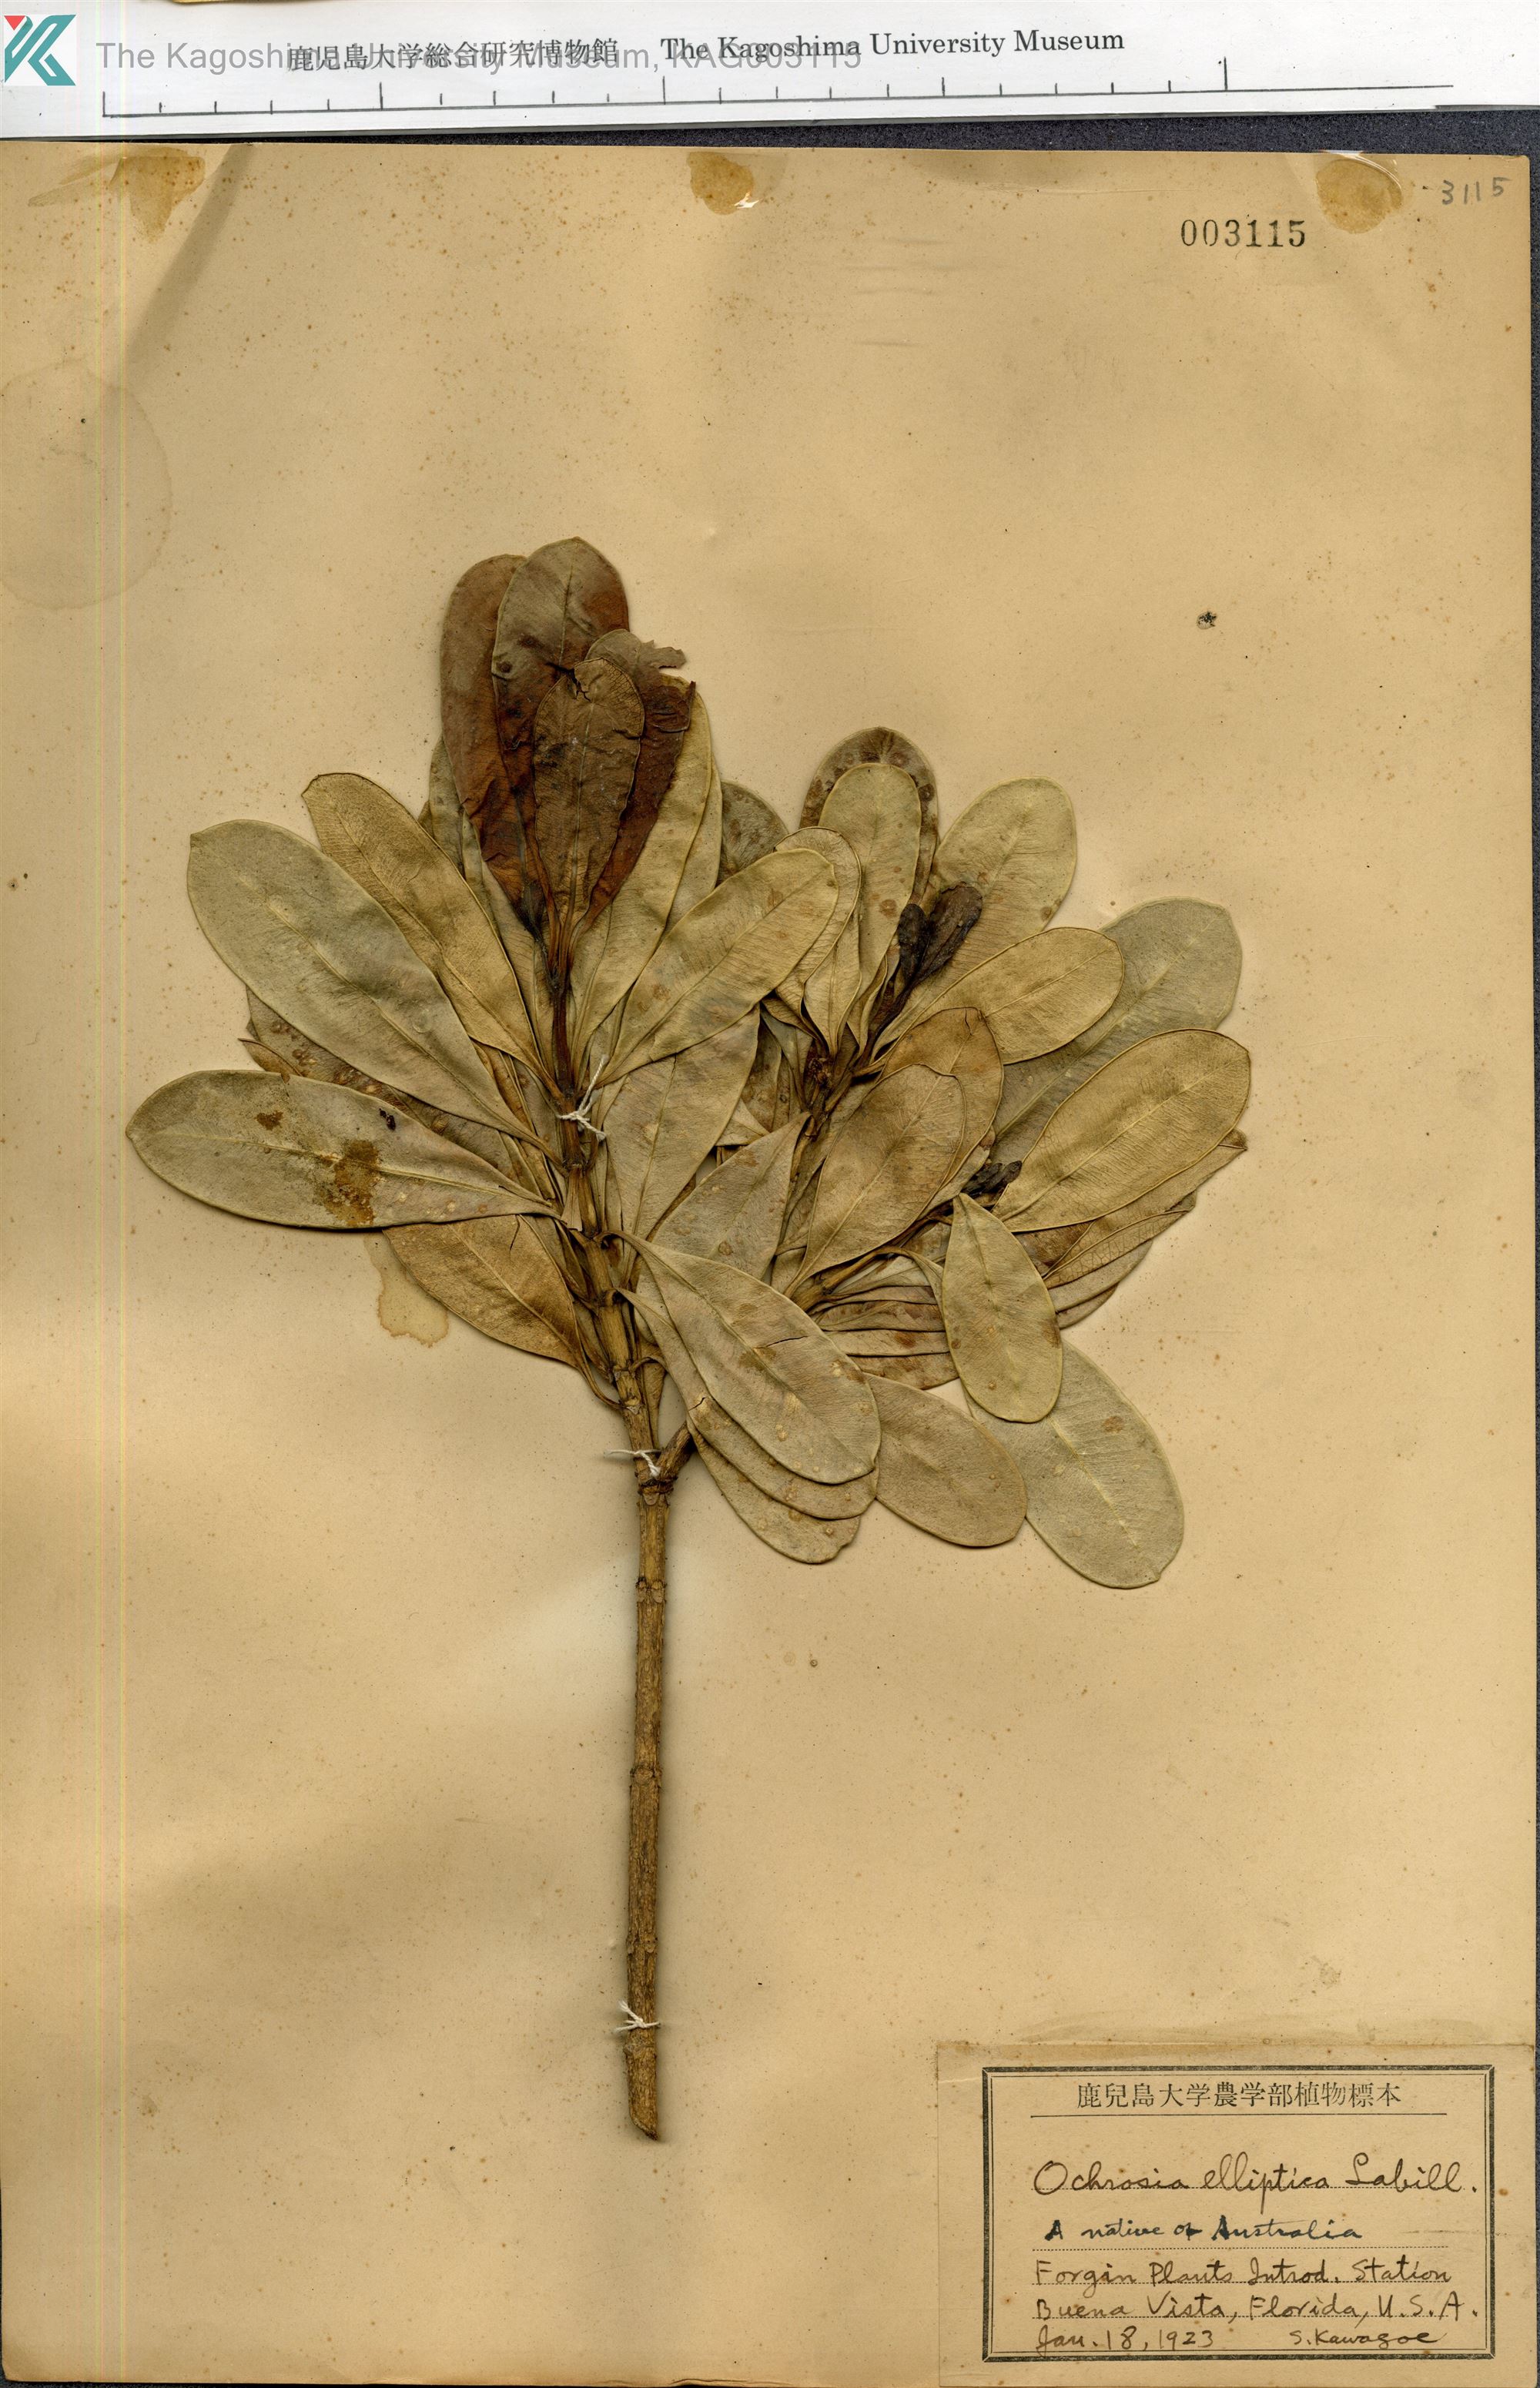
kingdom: Plantae
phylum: Tracheophyta
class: Magnoliopsida
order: Gentianales
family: Apocynaceae
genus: Ochrosia
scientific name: Ochrosia elliptica
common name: Elliptic yellowwood
